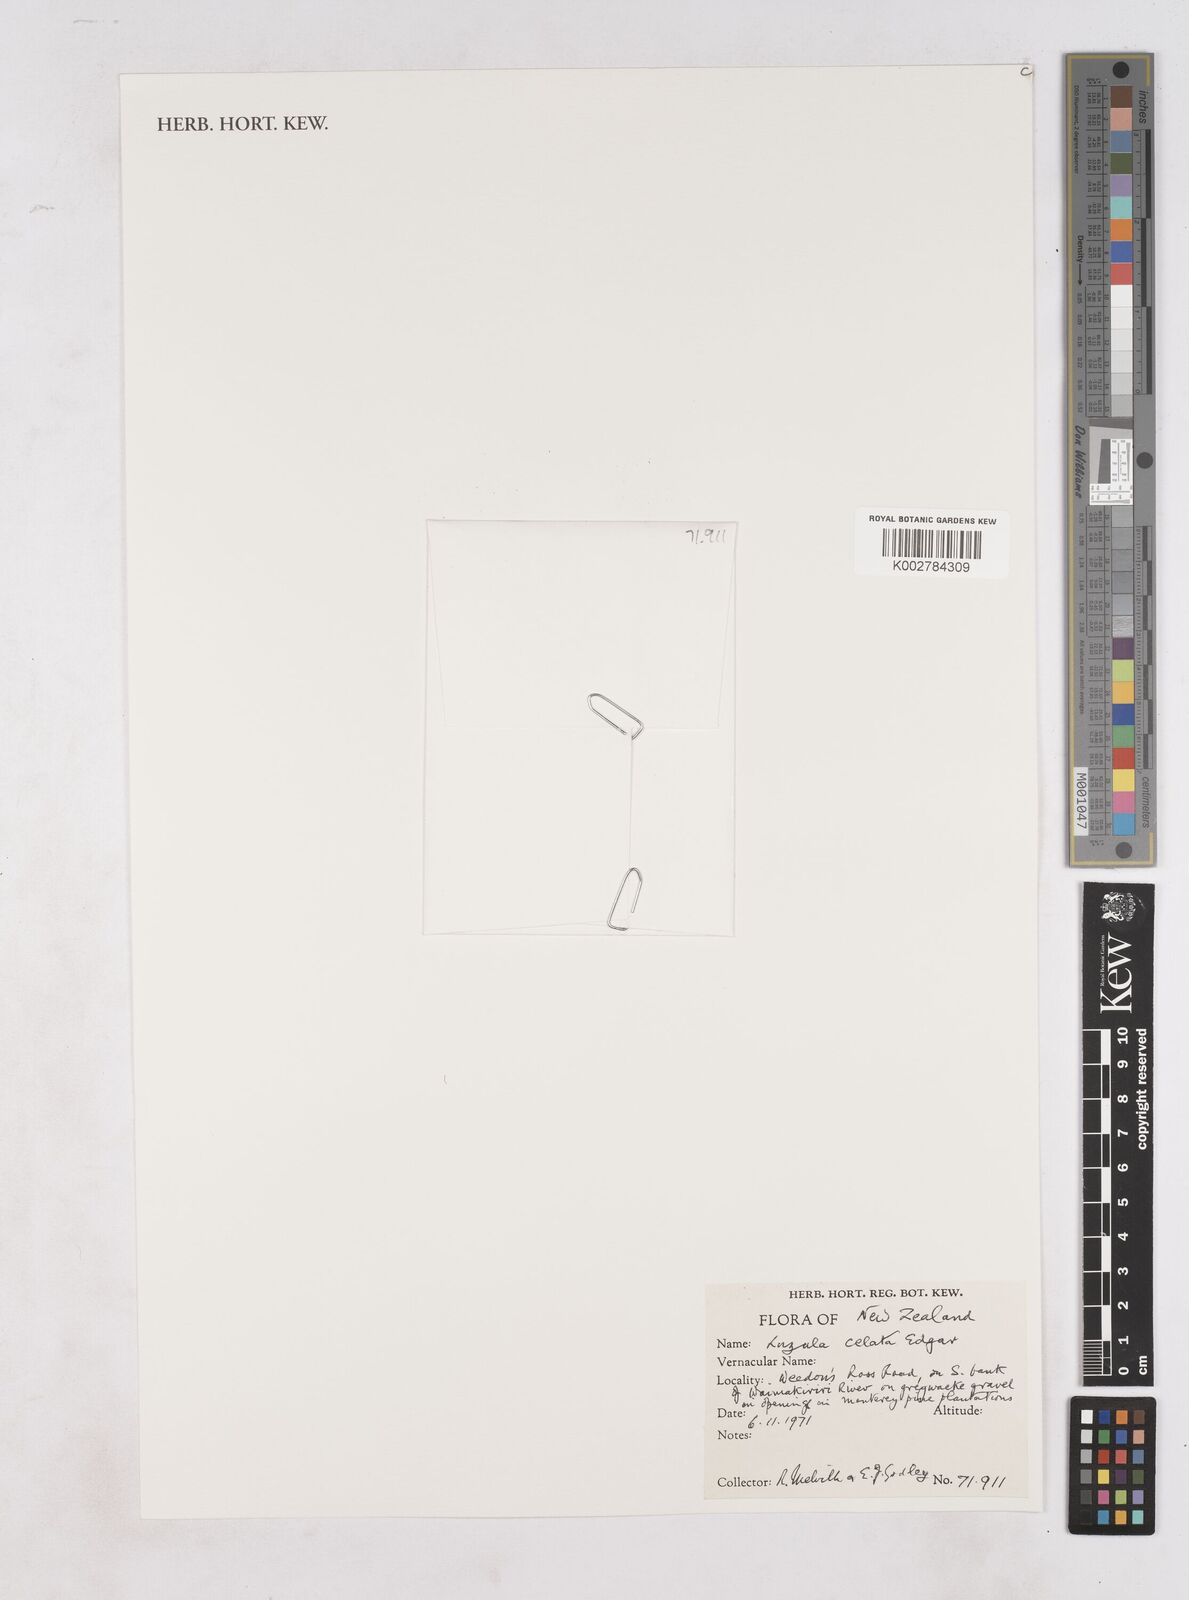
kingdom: Plantae
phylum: Tracheophyta
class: Liliopsida
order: Poales
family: Juncaceae
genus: Luzula
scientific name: Luzula celata
